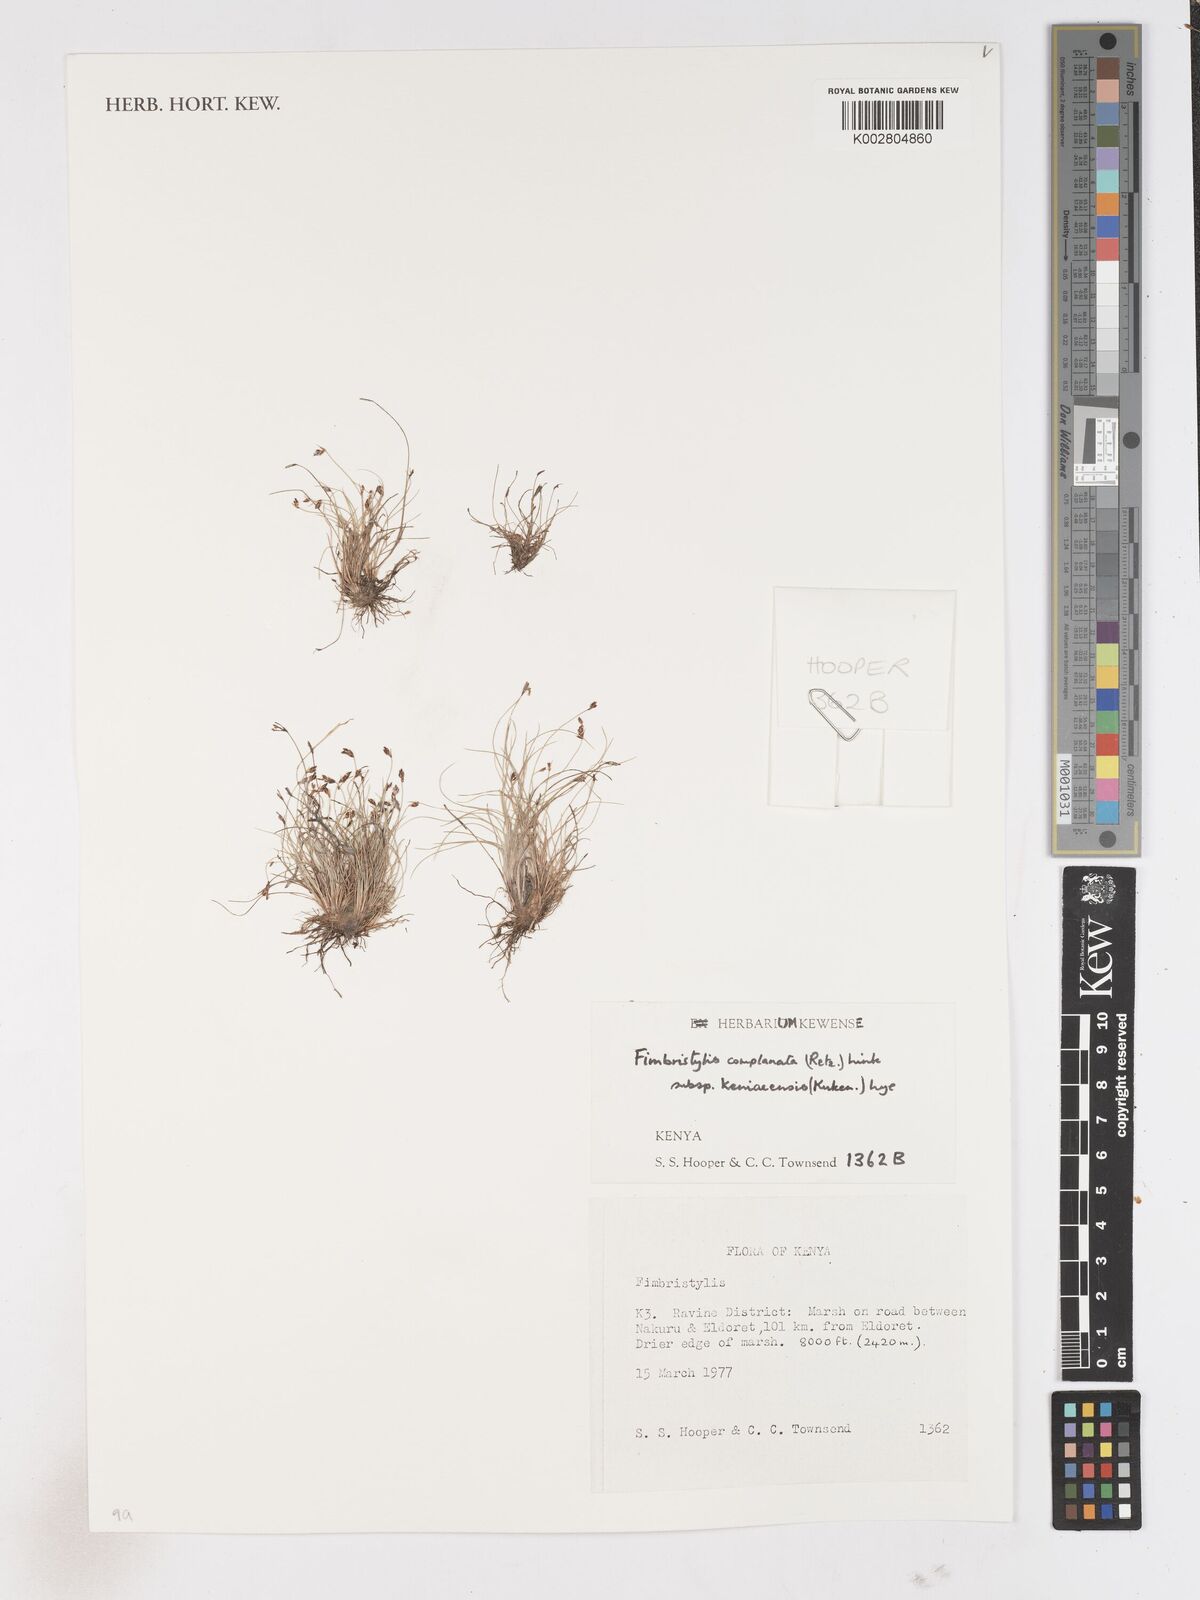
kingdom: Plantae
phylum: Tracheophyta
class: Liliopsida
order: Poales
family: Cyperaceae
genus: Fimbristylis
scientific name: Fimbristylis complanata
